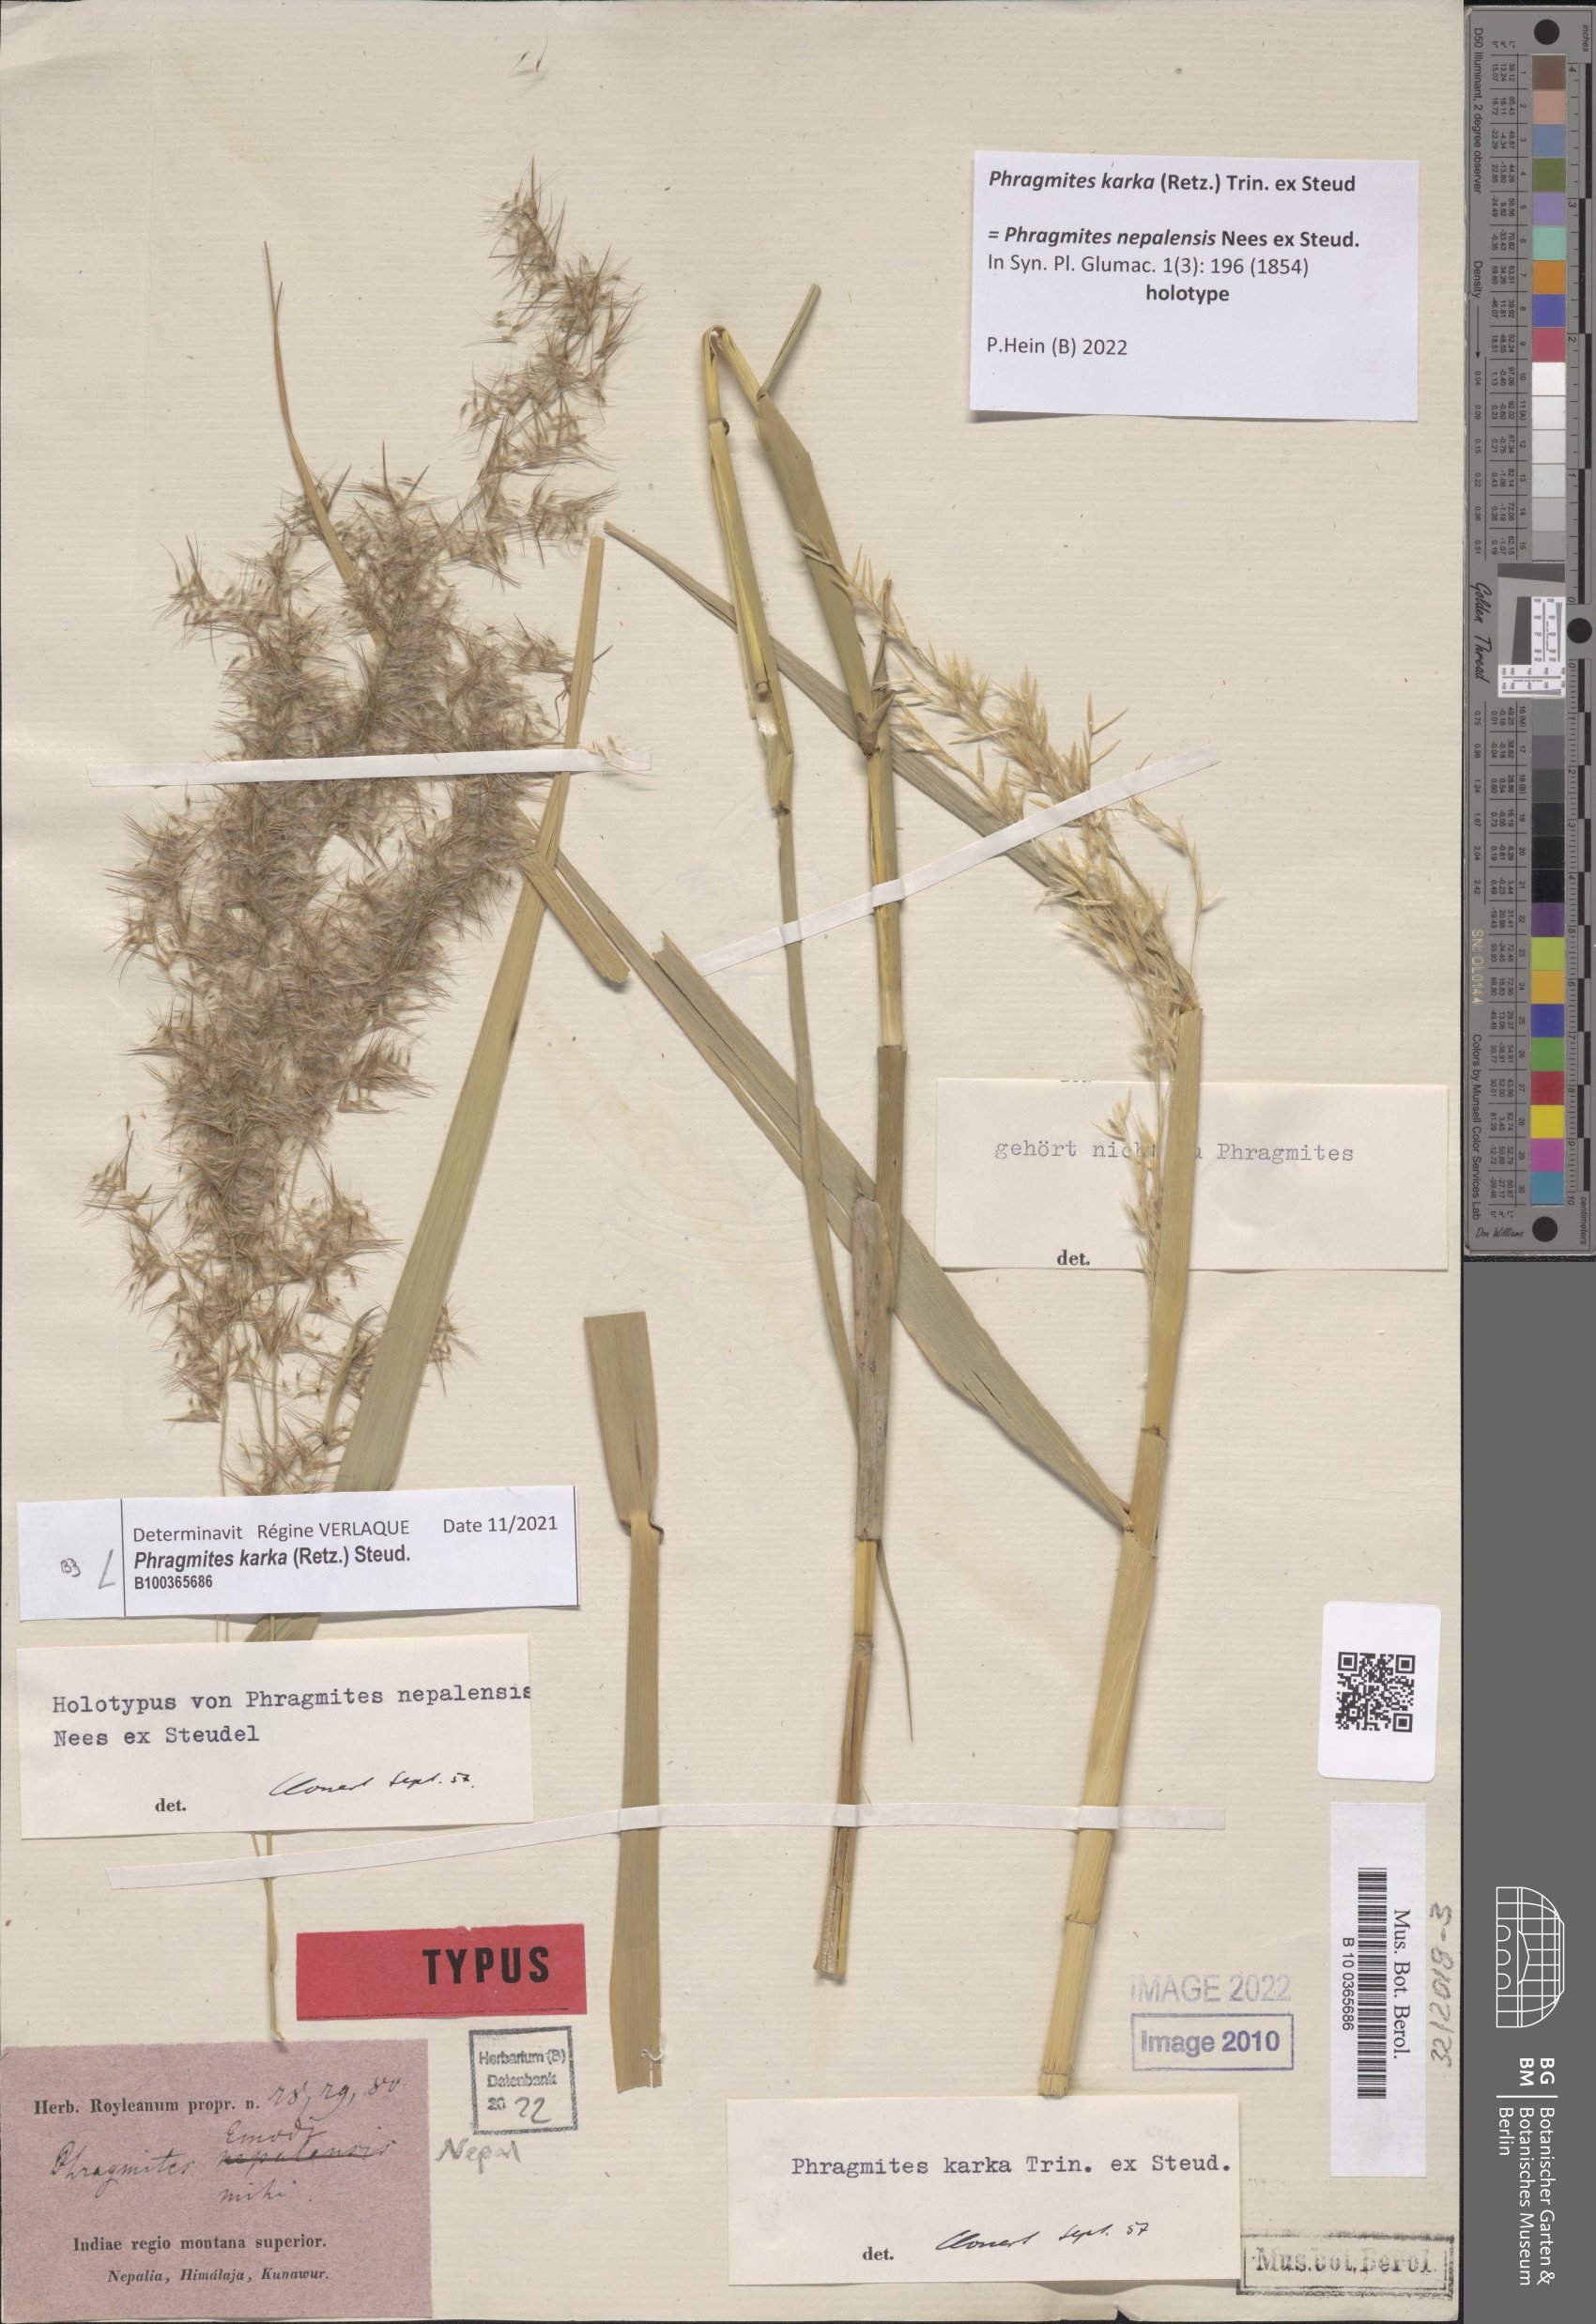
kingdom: Plantae
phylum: Tracheophyta
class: Liliopsida
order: Poales
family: Poaceae
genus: Phragmites
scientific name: Phragmites karka
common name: Tropical reed
